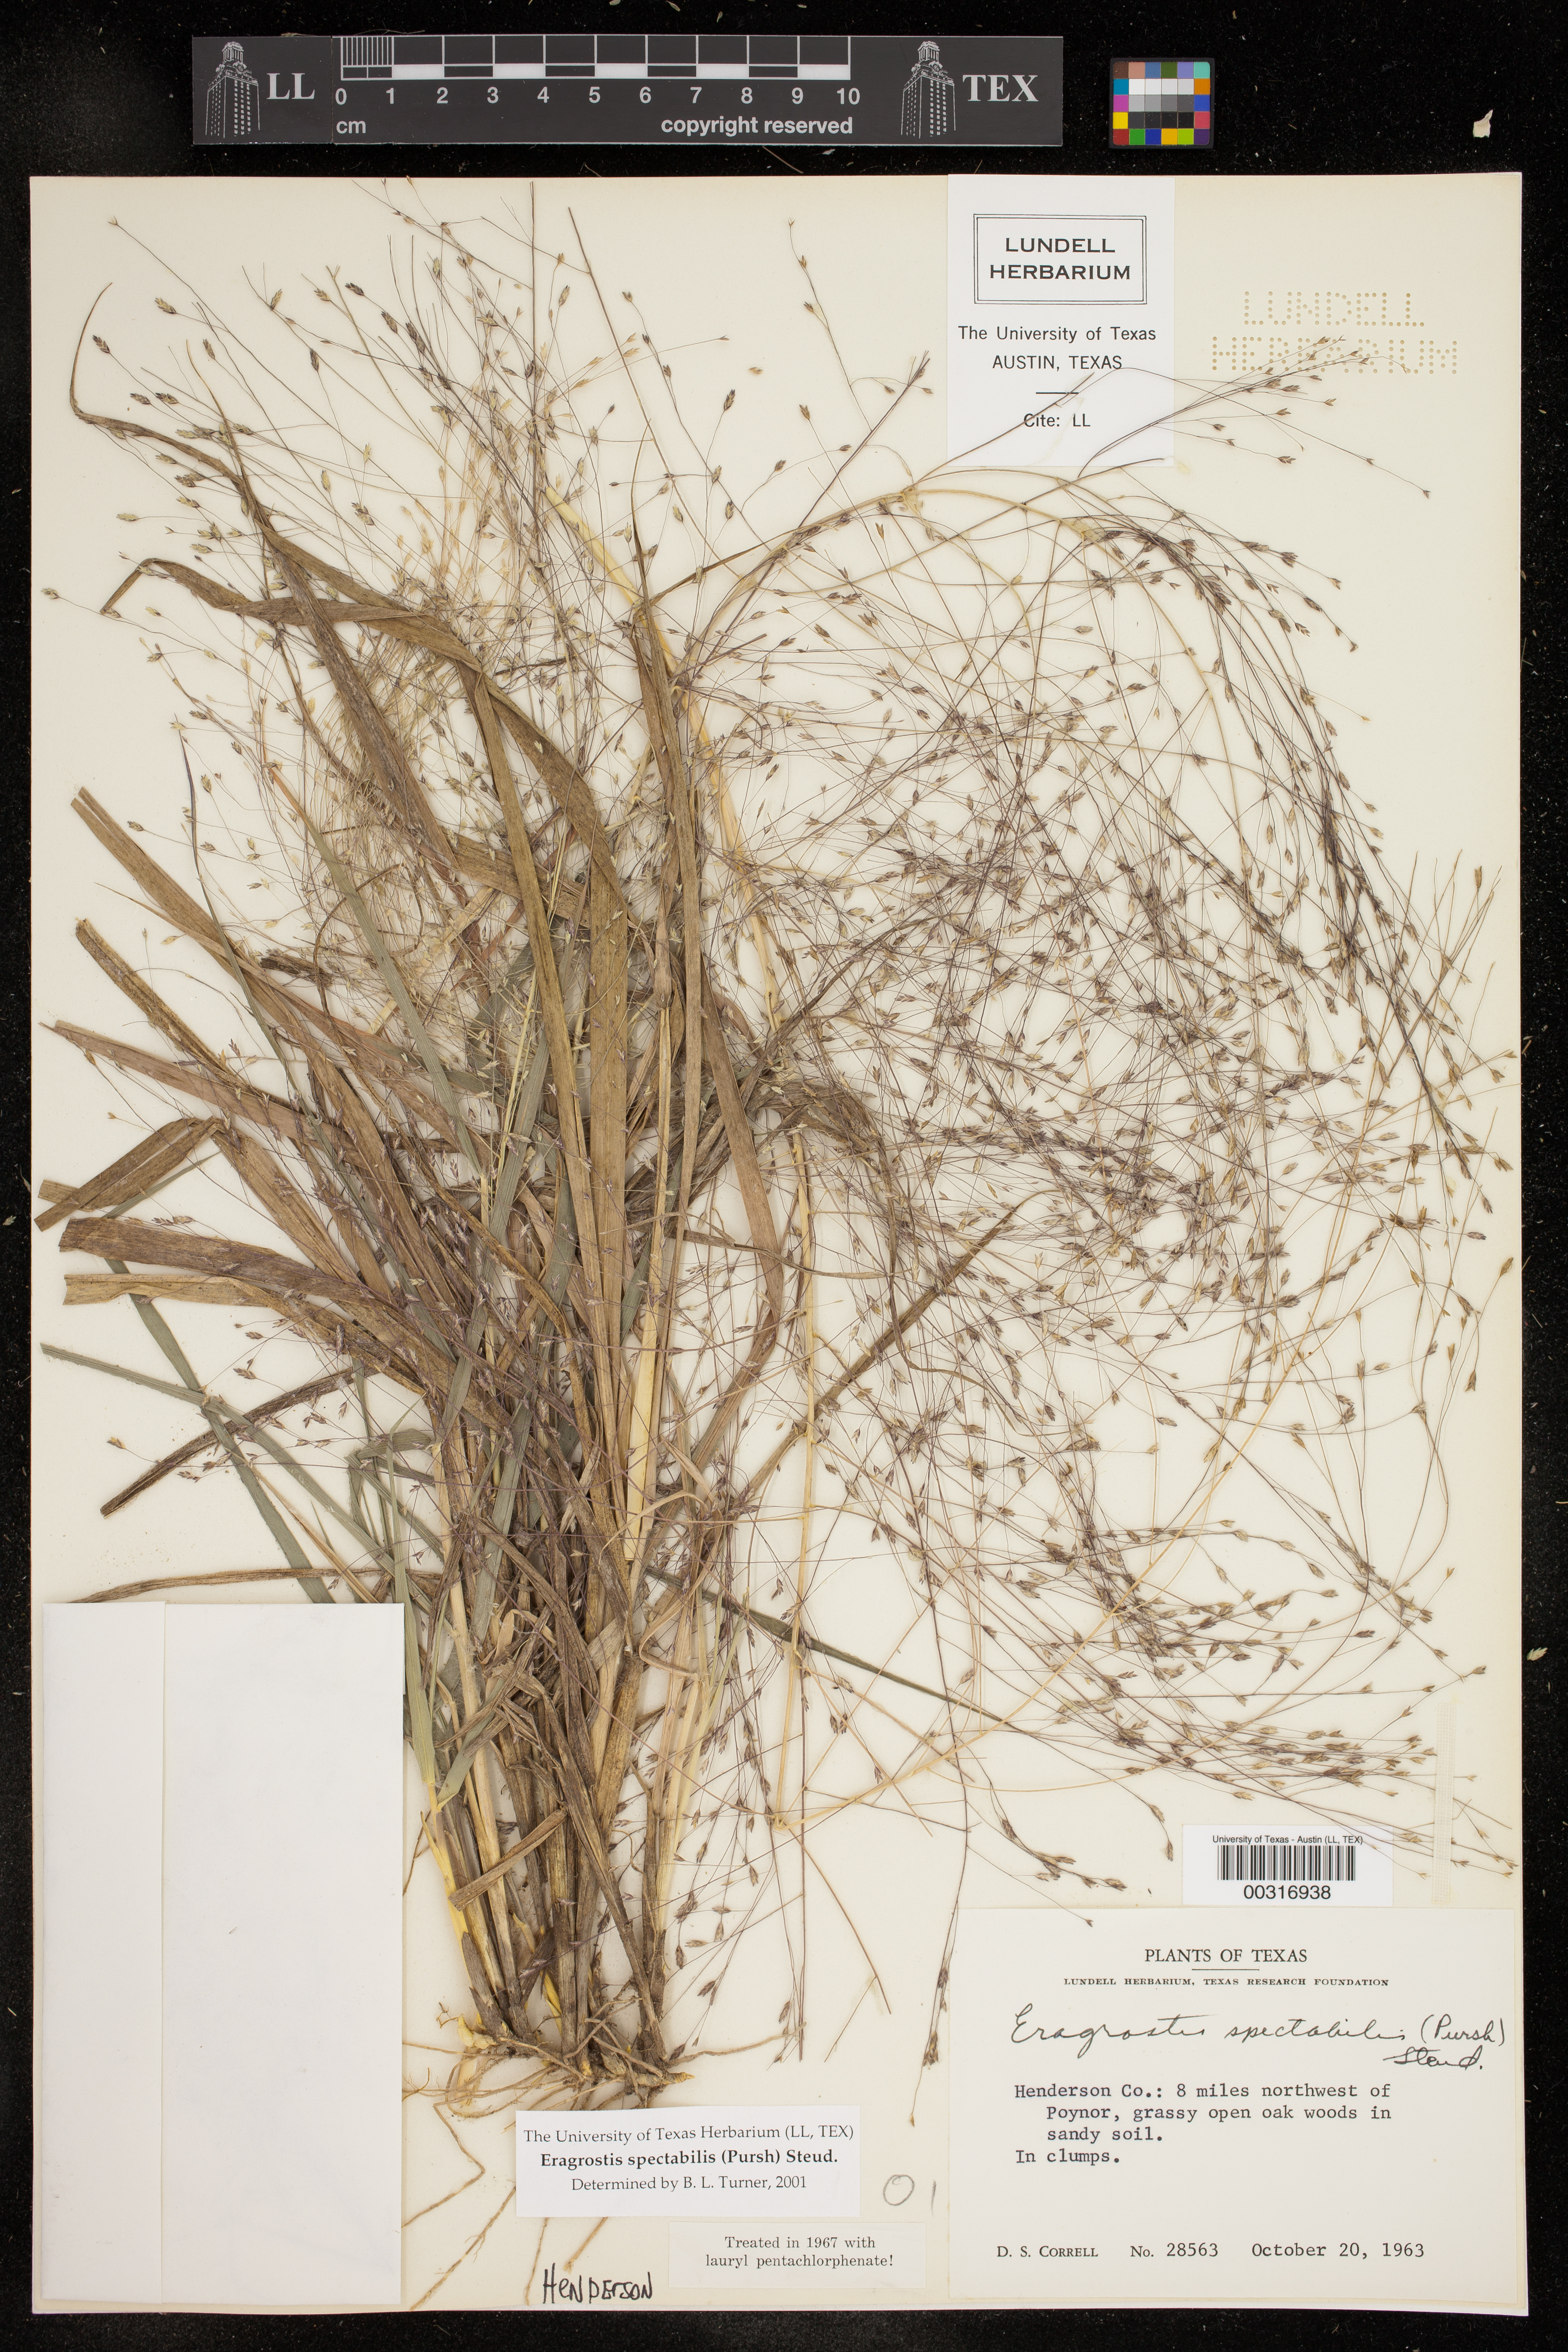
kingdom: Plantae
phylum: Tracheophyta
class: Liliopsida
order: Poales
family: Poaceae
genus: Eragrostis
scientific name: Eragrostis spectabilis
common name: Petticoat-climber
